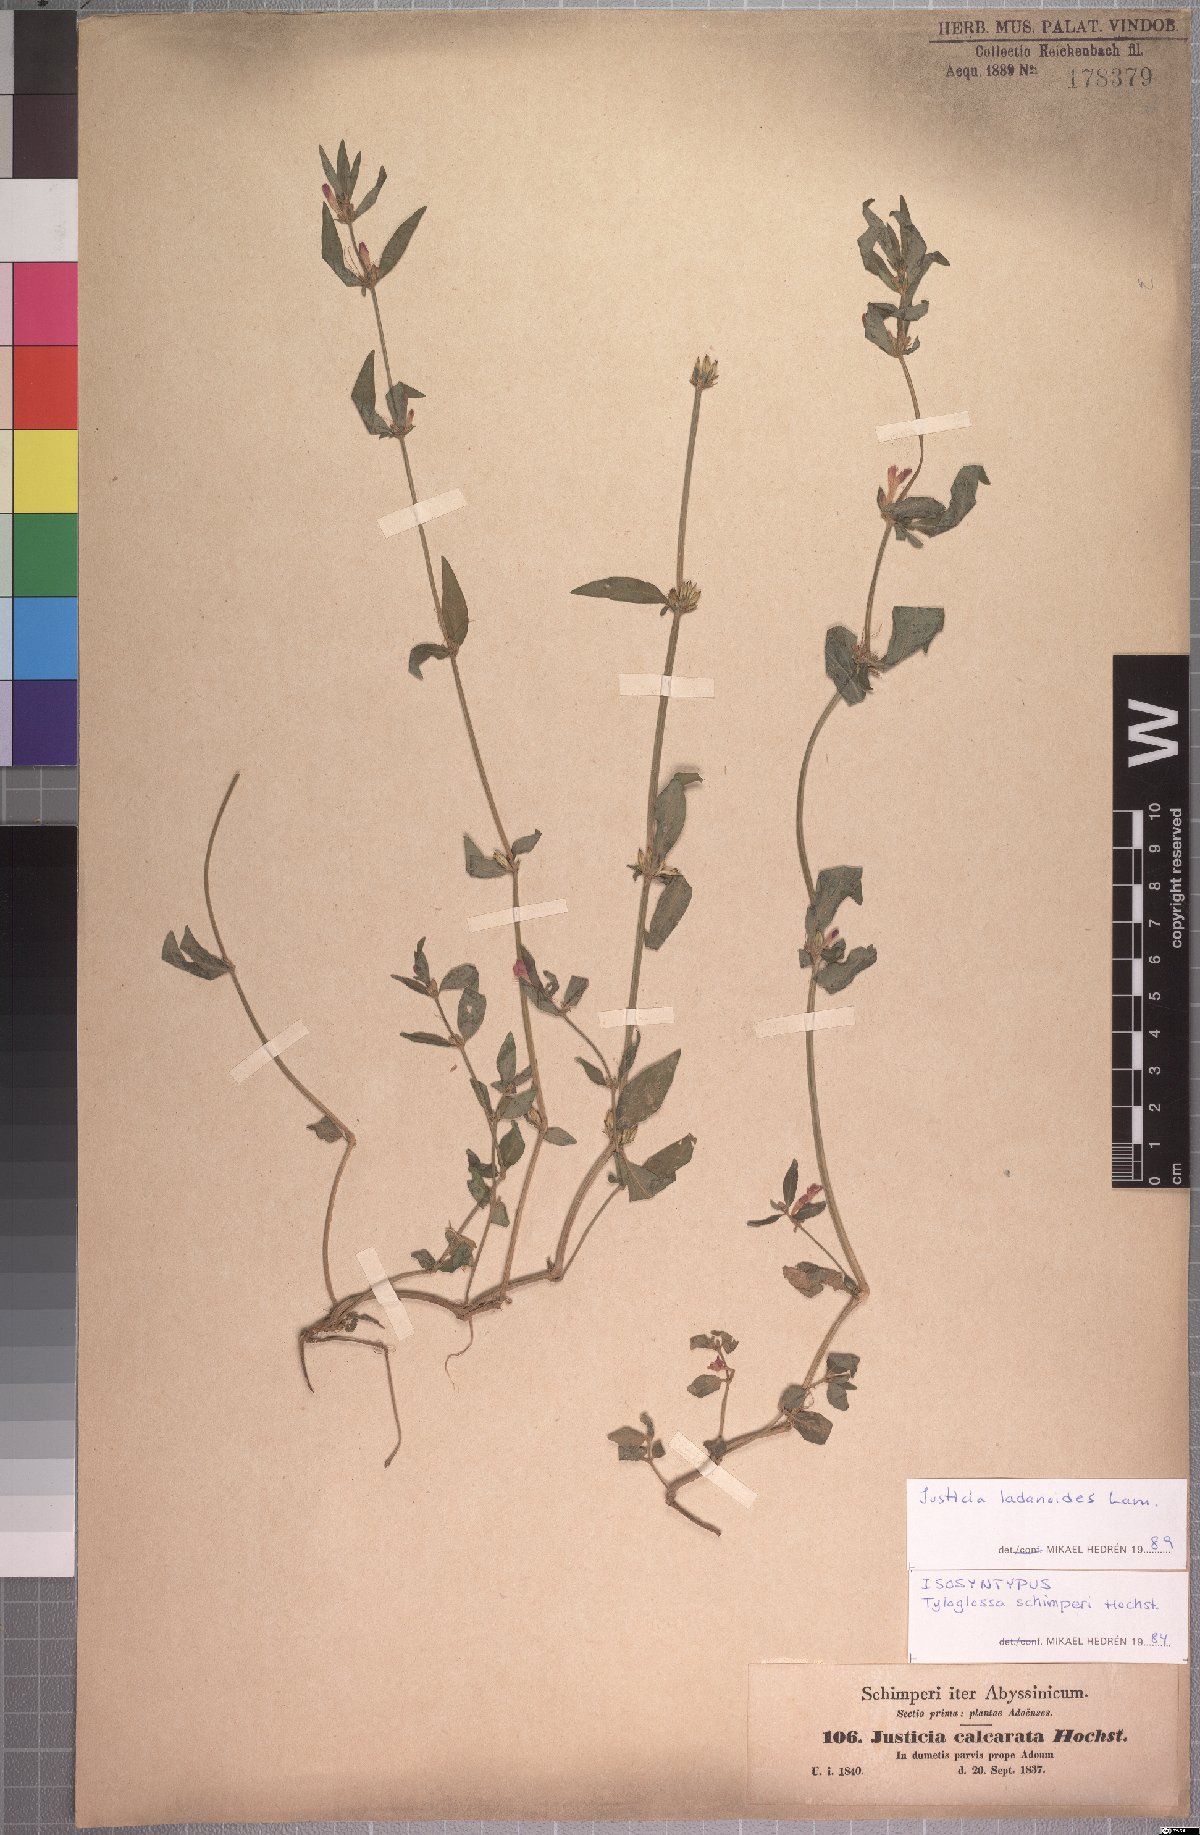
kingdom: Plantae
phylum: Tracheophyta
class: Magnoliopsida
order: Lamiales
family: Acanthaceae
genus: Justicia
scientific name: Justicia ladanoides
